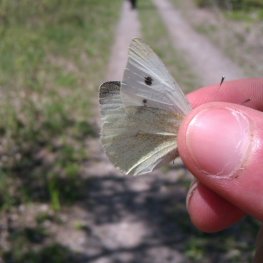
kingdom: Animalia
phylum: Arthropoda
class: Insecta
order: Lepidoptera
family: Pieridae
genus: Pieris
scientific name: Pieris rapae
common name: Cabbage White
